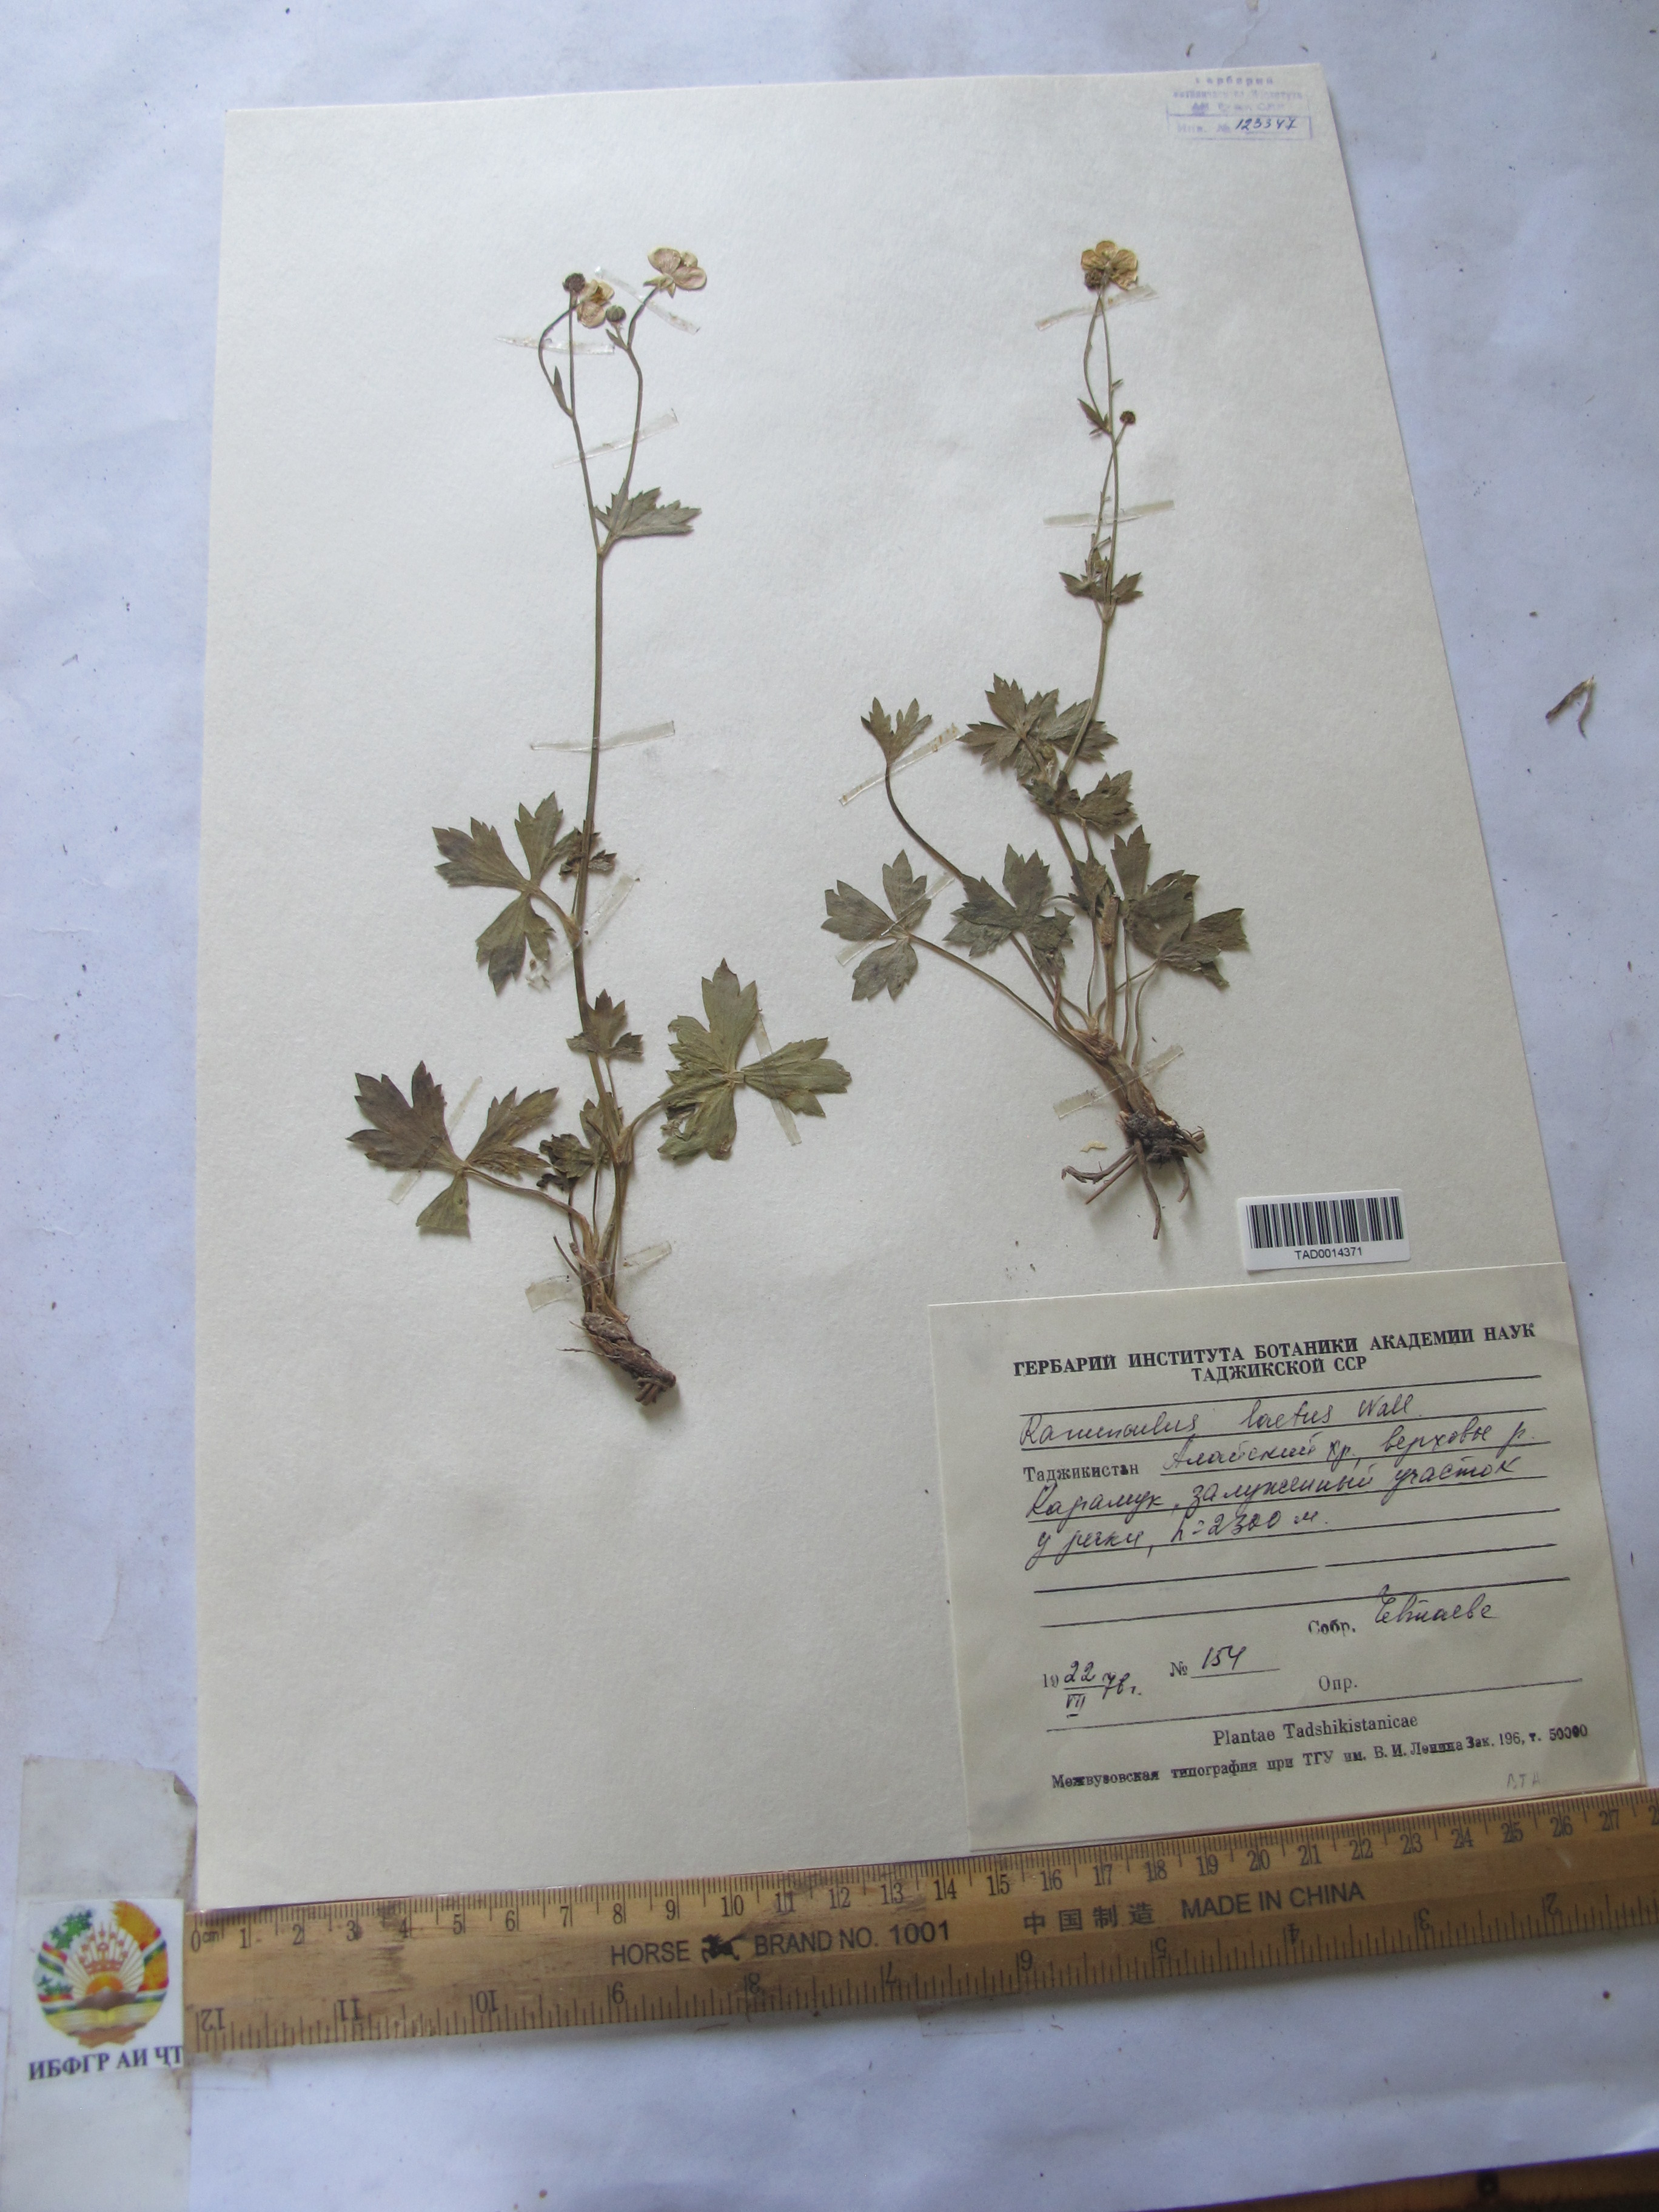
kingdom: Plantae
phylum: Tracheophyta
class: Magnoliopsida
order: Ranunculales
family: Ranunculaceae
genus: Ranunculus
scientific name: Ranunculus distans
